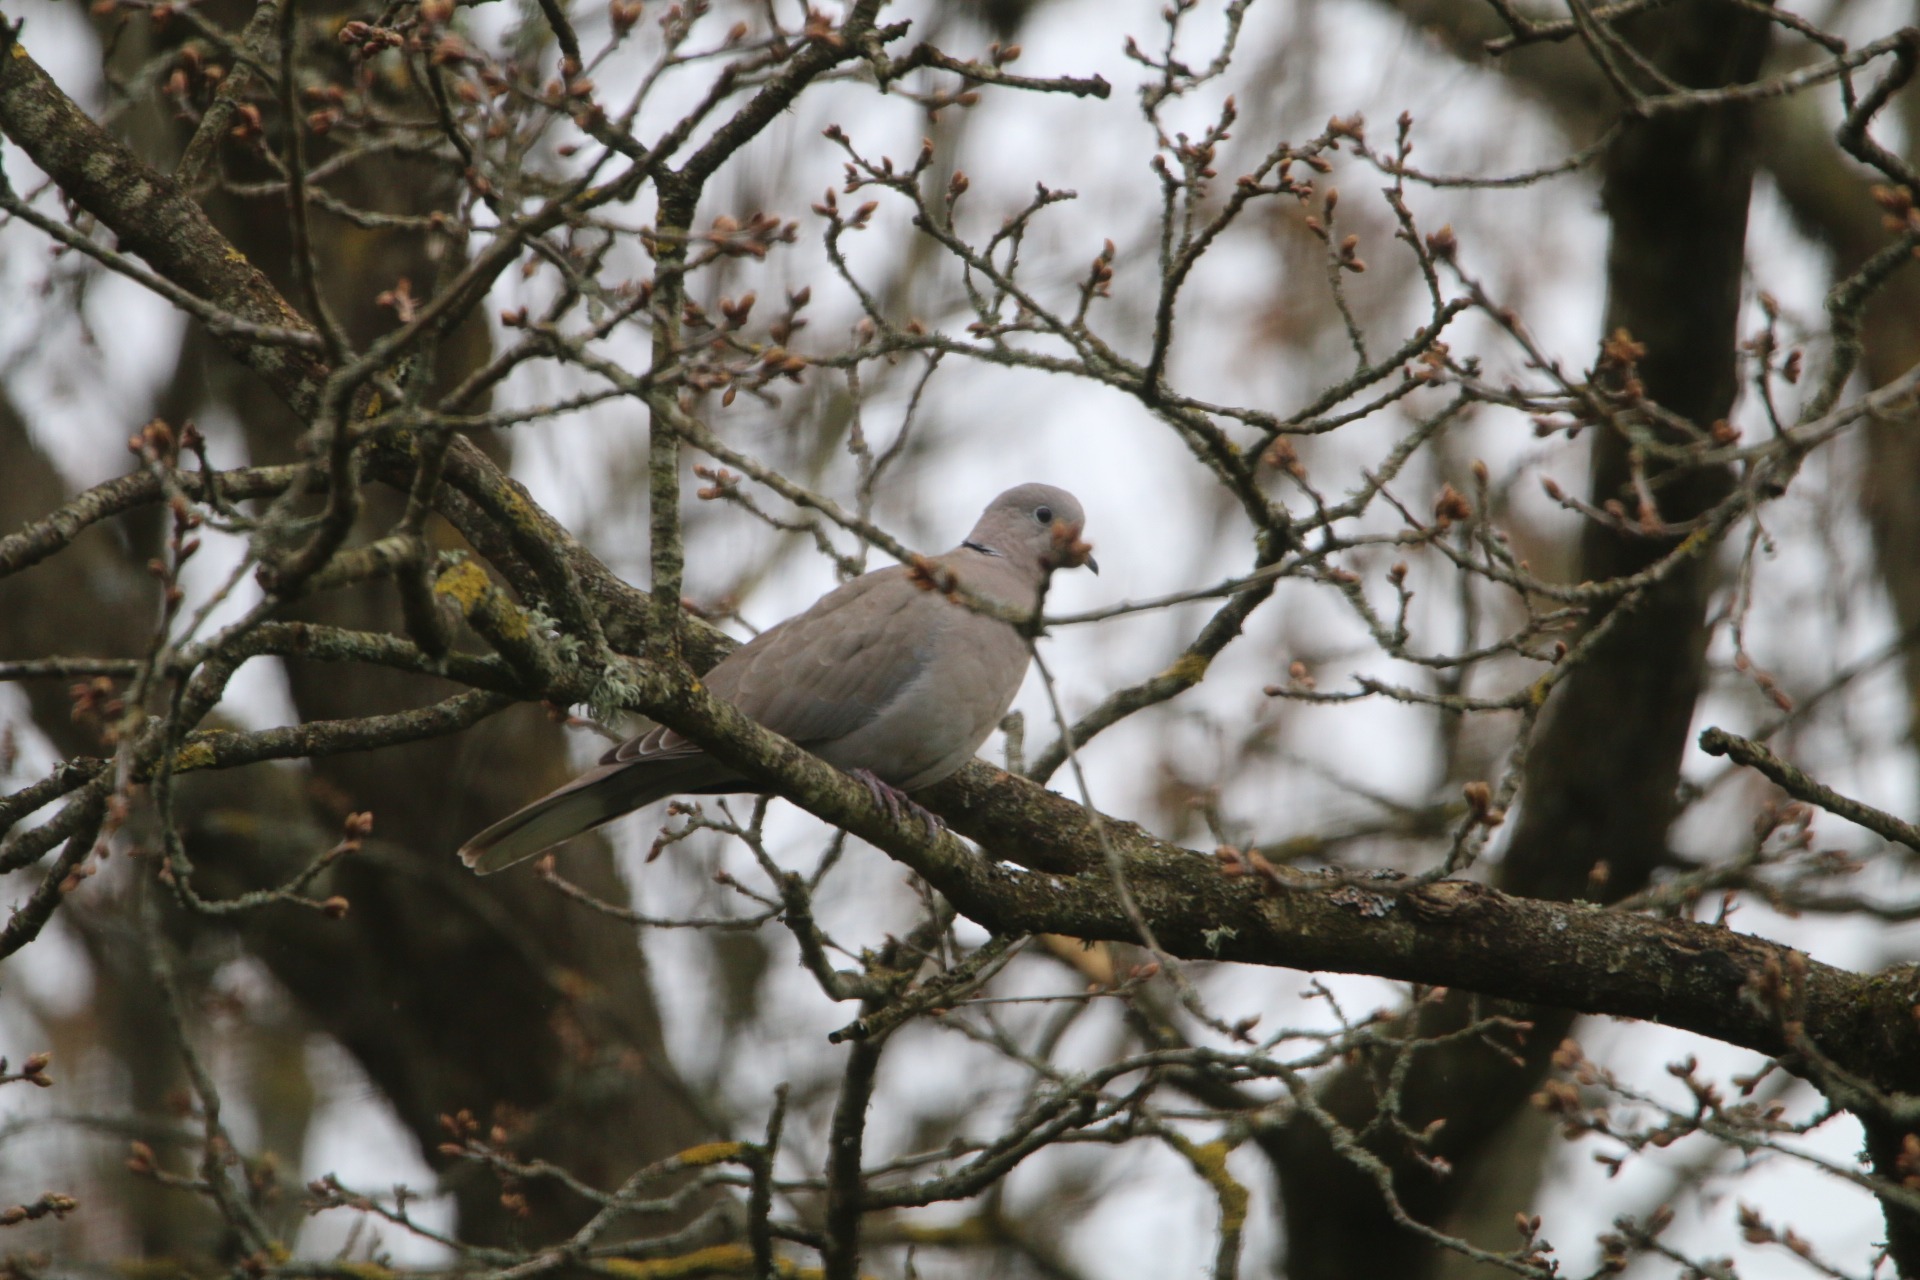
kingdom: Animalia
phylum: Chordata
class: Aves
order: Columbiformes
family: Columbidae
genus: Streptopelia
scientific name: Streptopelia decaocto
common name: Tyrkerdue
